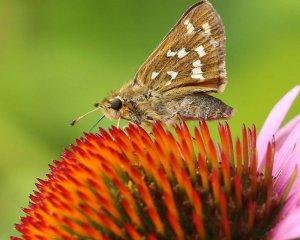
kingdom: Animalia
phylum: Arthropoda
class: Insecta
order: Lepidoptera
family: Hesperiidae
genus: Hesperia
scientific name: Hesperia comma
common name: Common Branded Skipper
